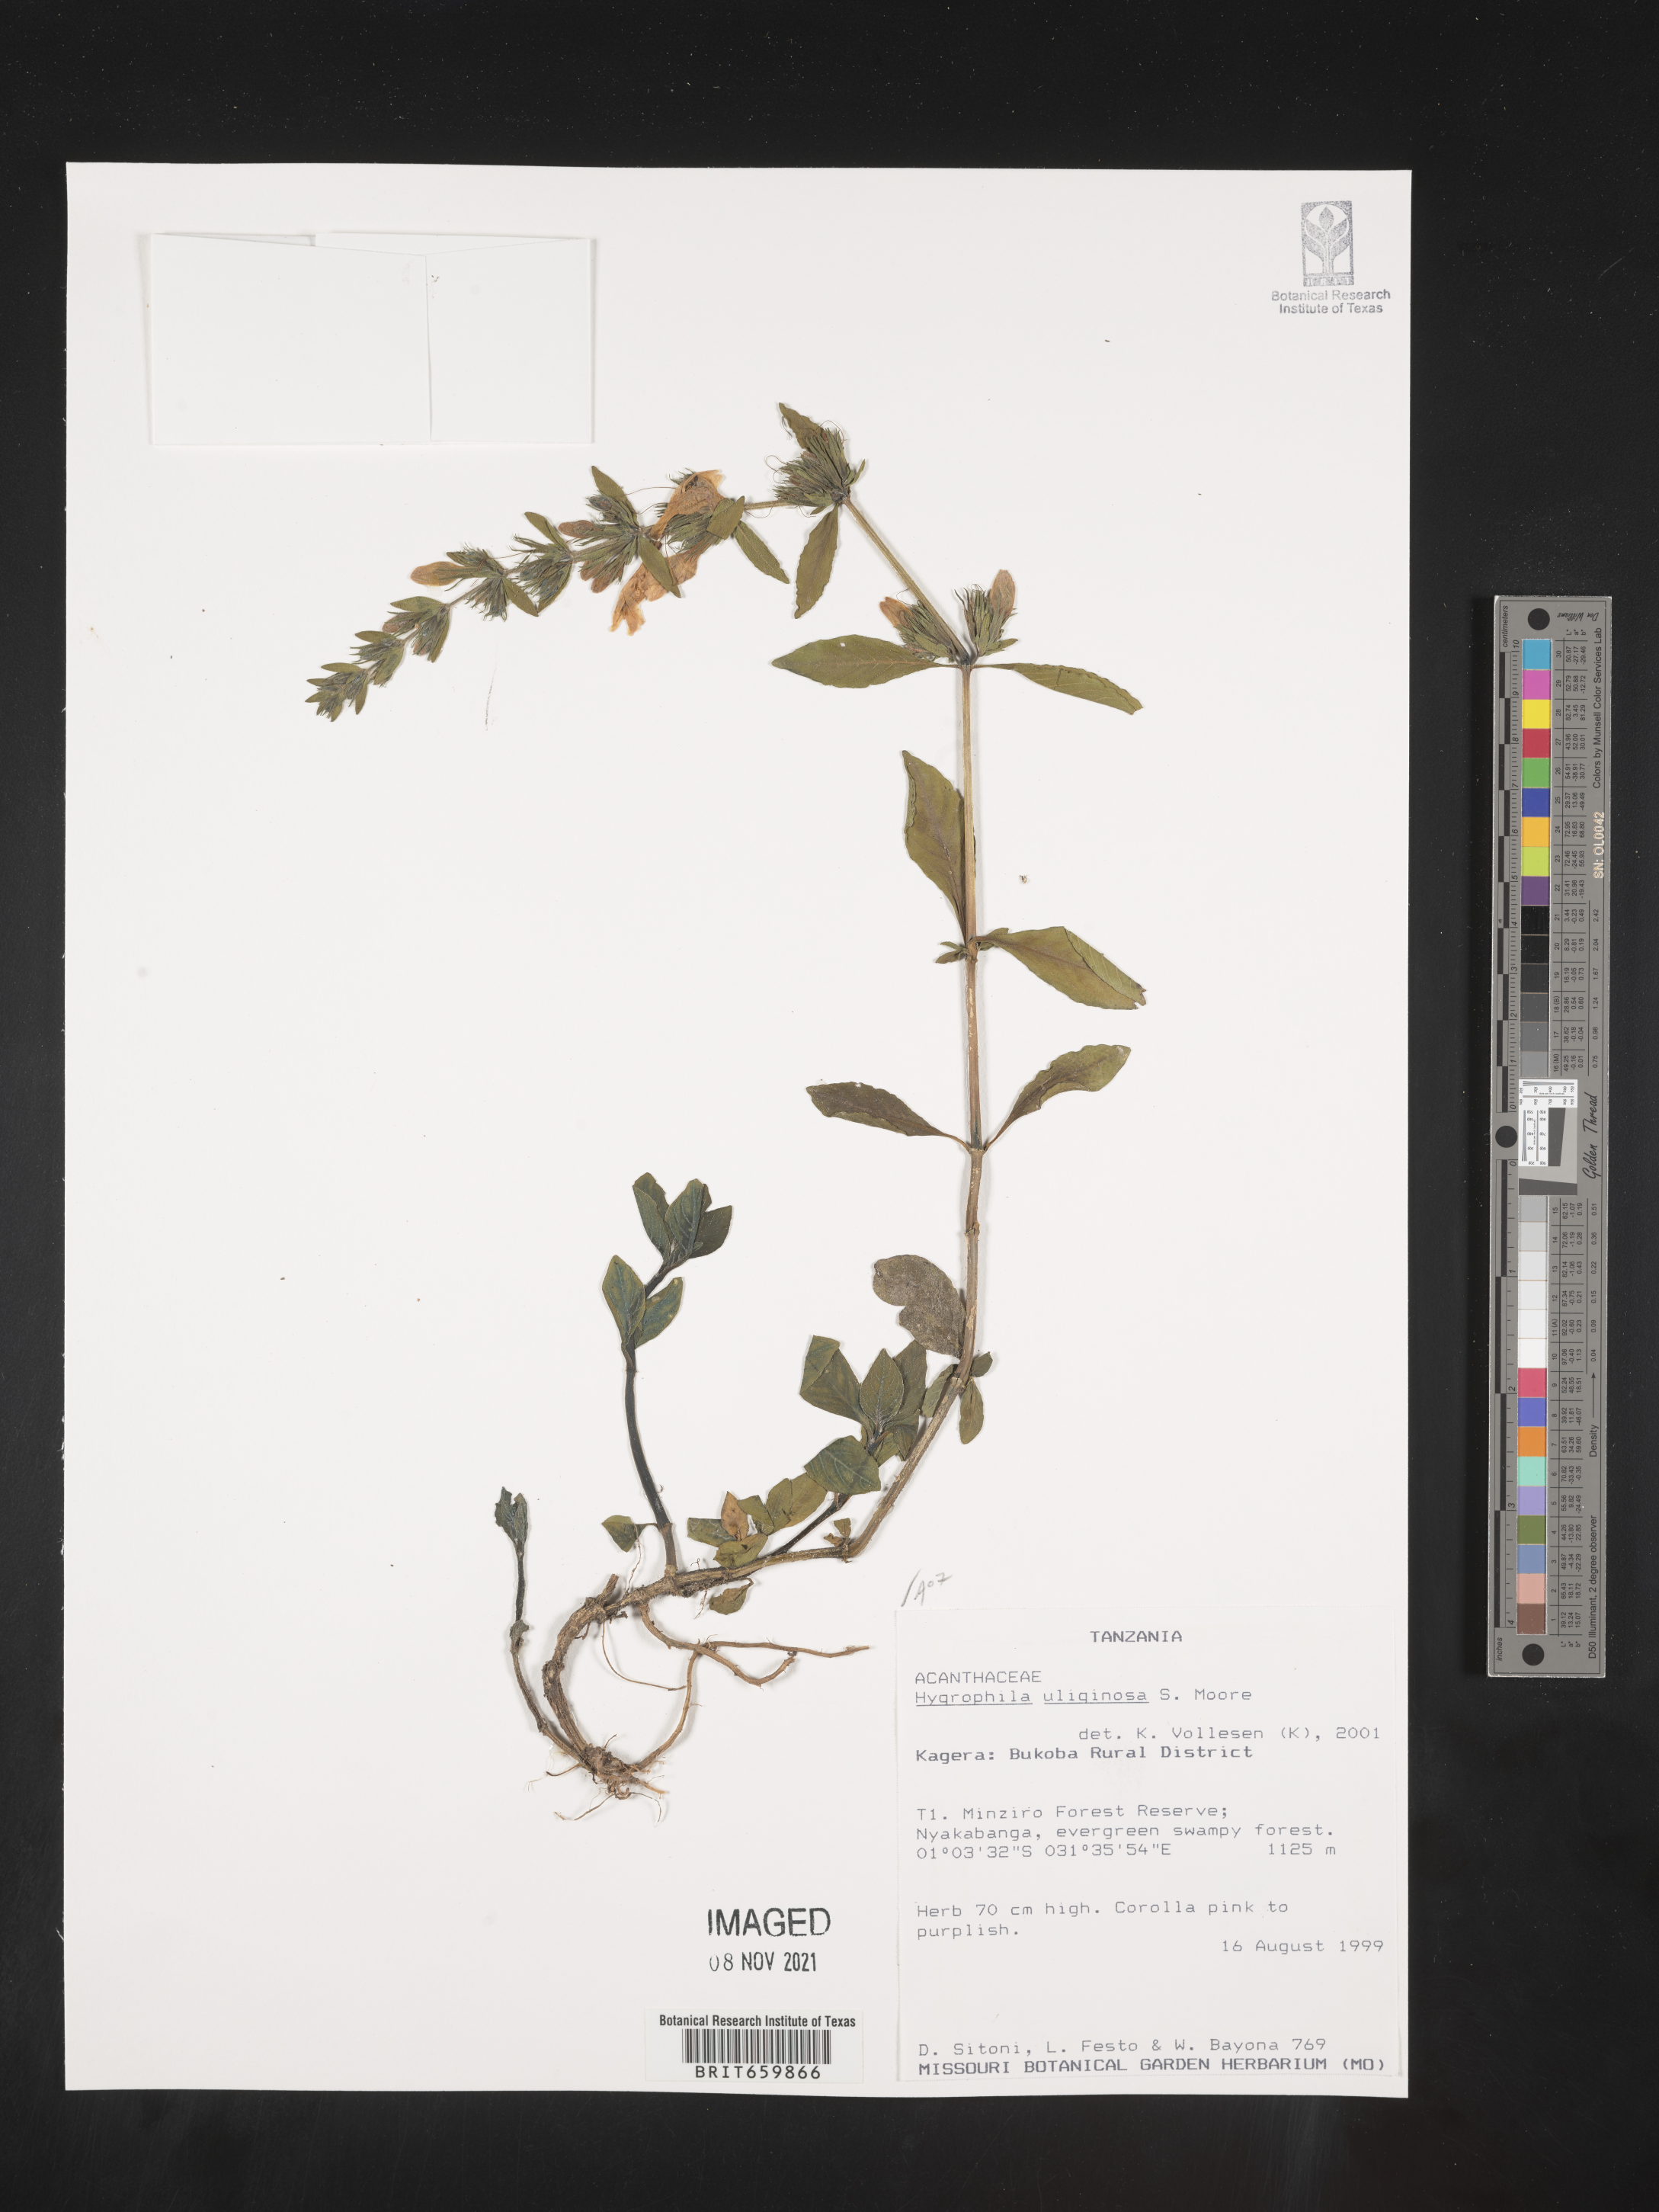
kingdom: Plantae
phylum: Tracheophyta
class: Magnoliopsida
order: Lamiales
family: Acanthaceae
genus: Hygrophila
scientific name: Hygrophila
